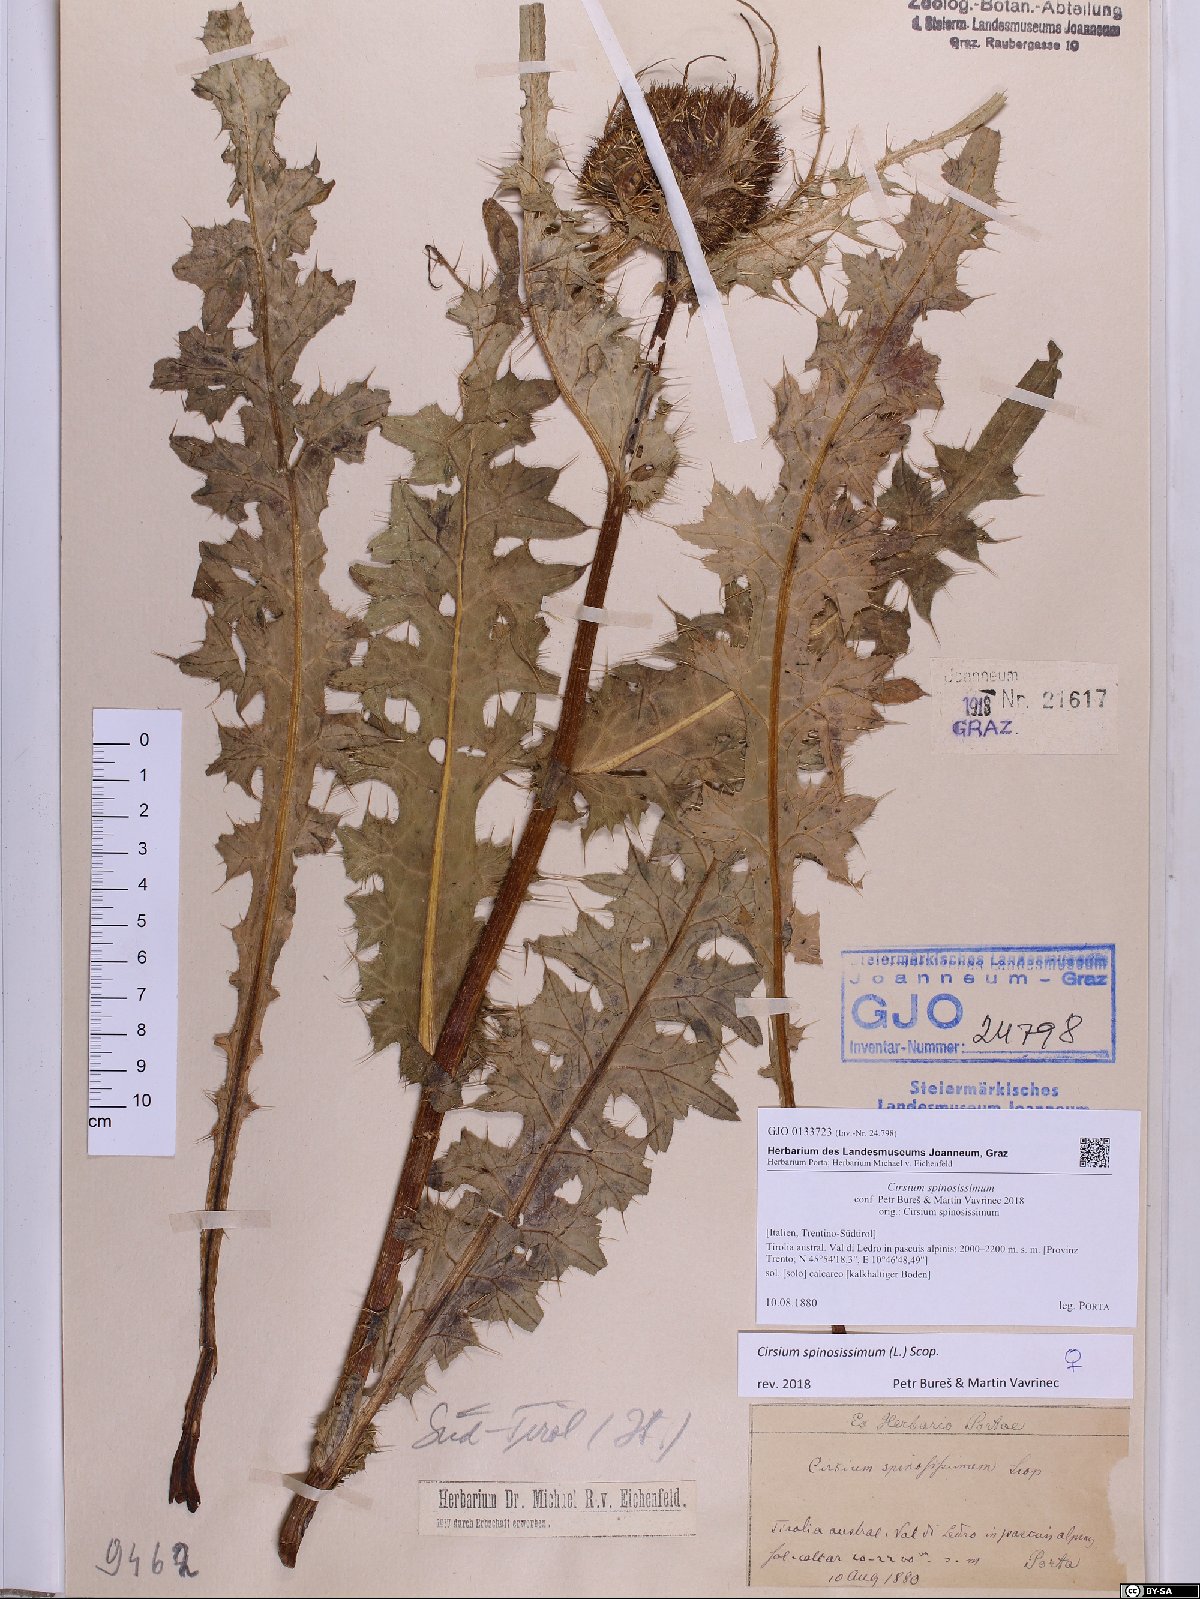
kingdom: Plantae
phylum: Tracheophyta
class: Magnoliopsida
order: Asterales
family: Asteraceae
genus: Cirsium
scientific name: Cirsium spinosissimum
